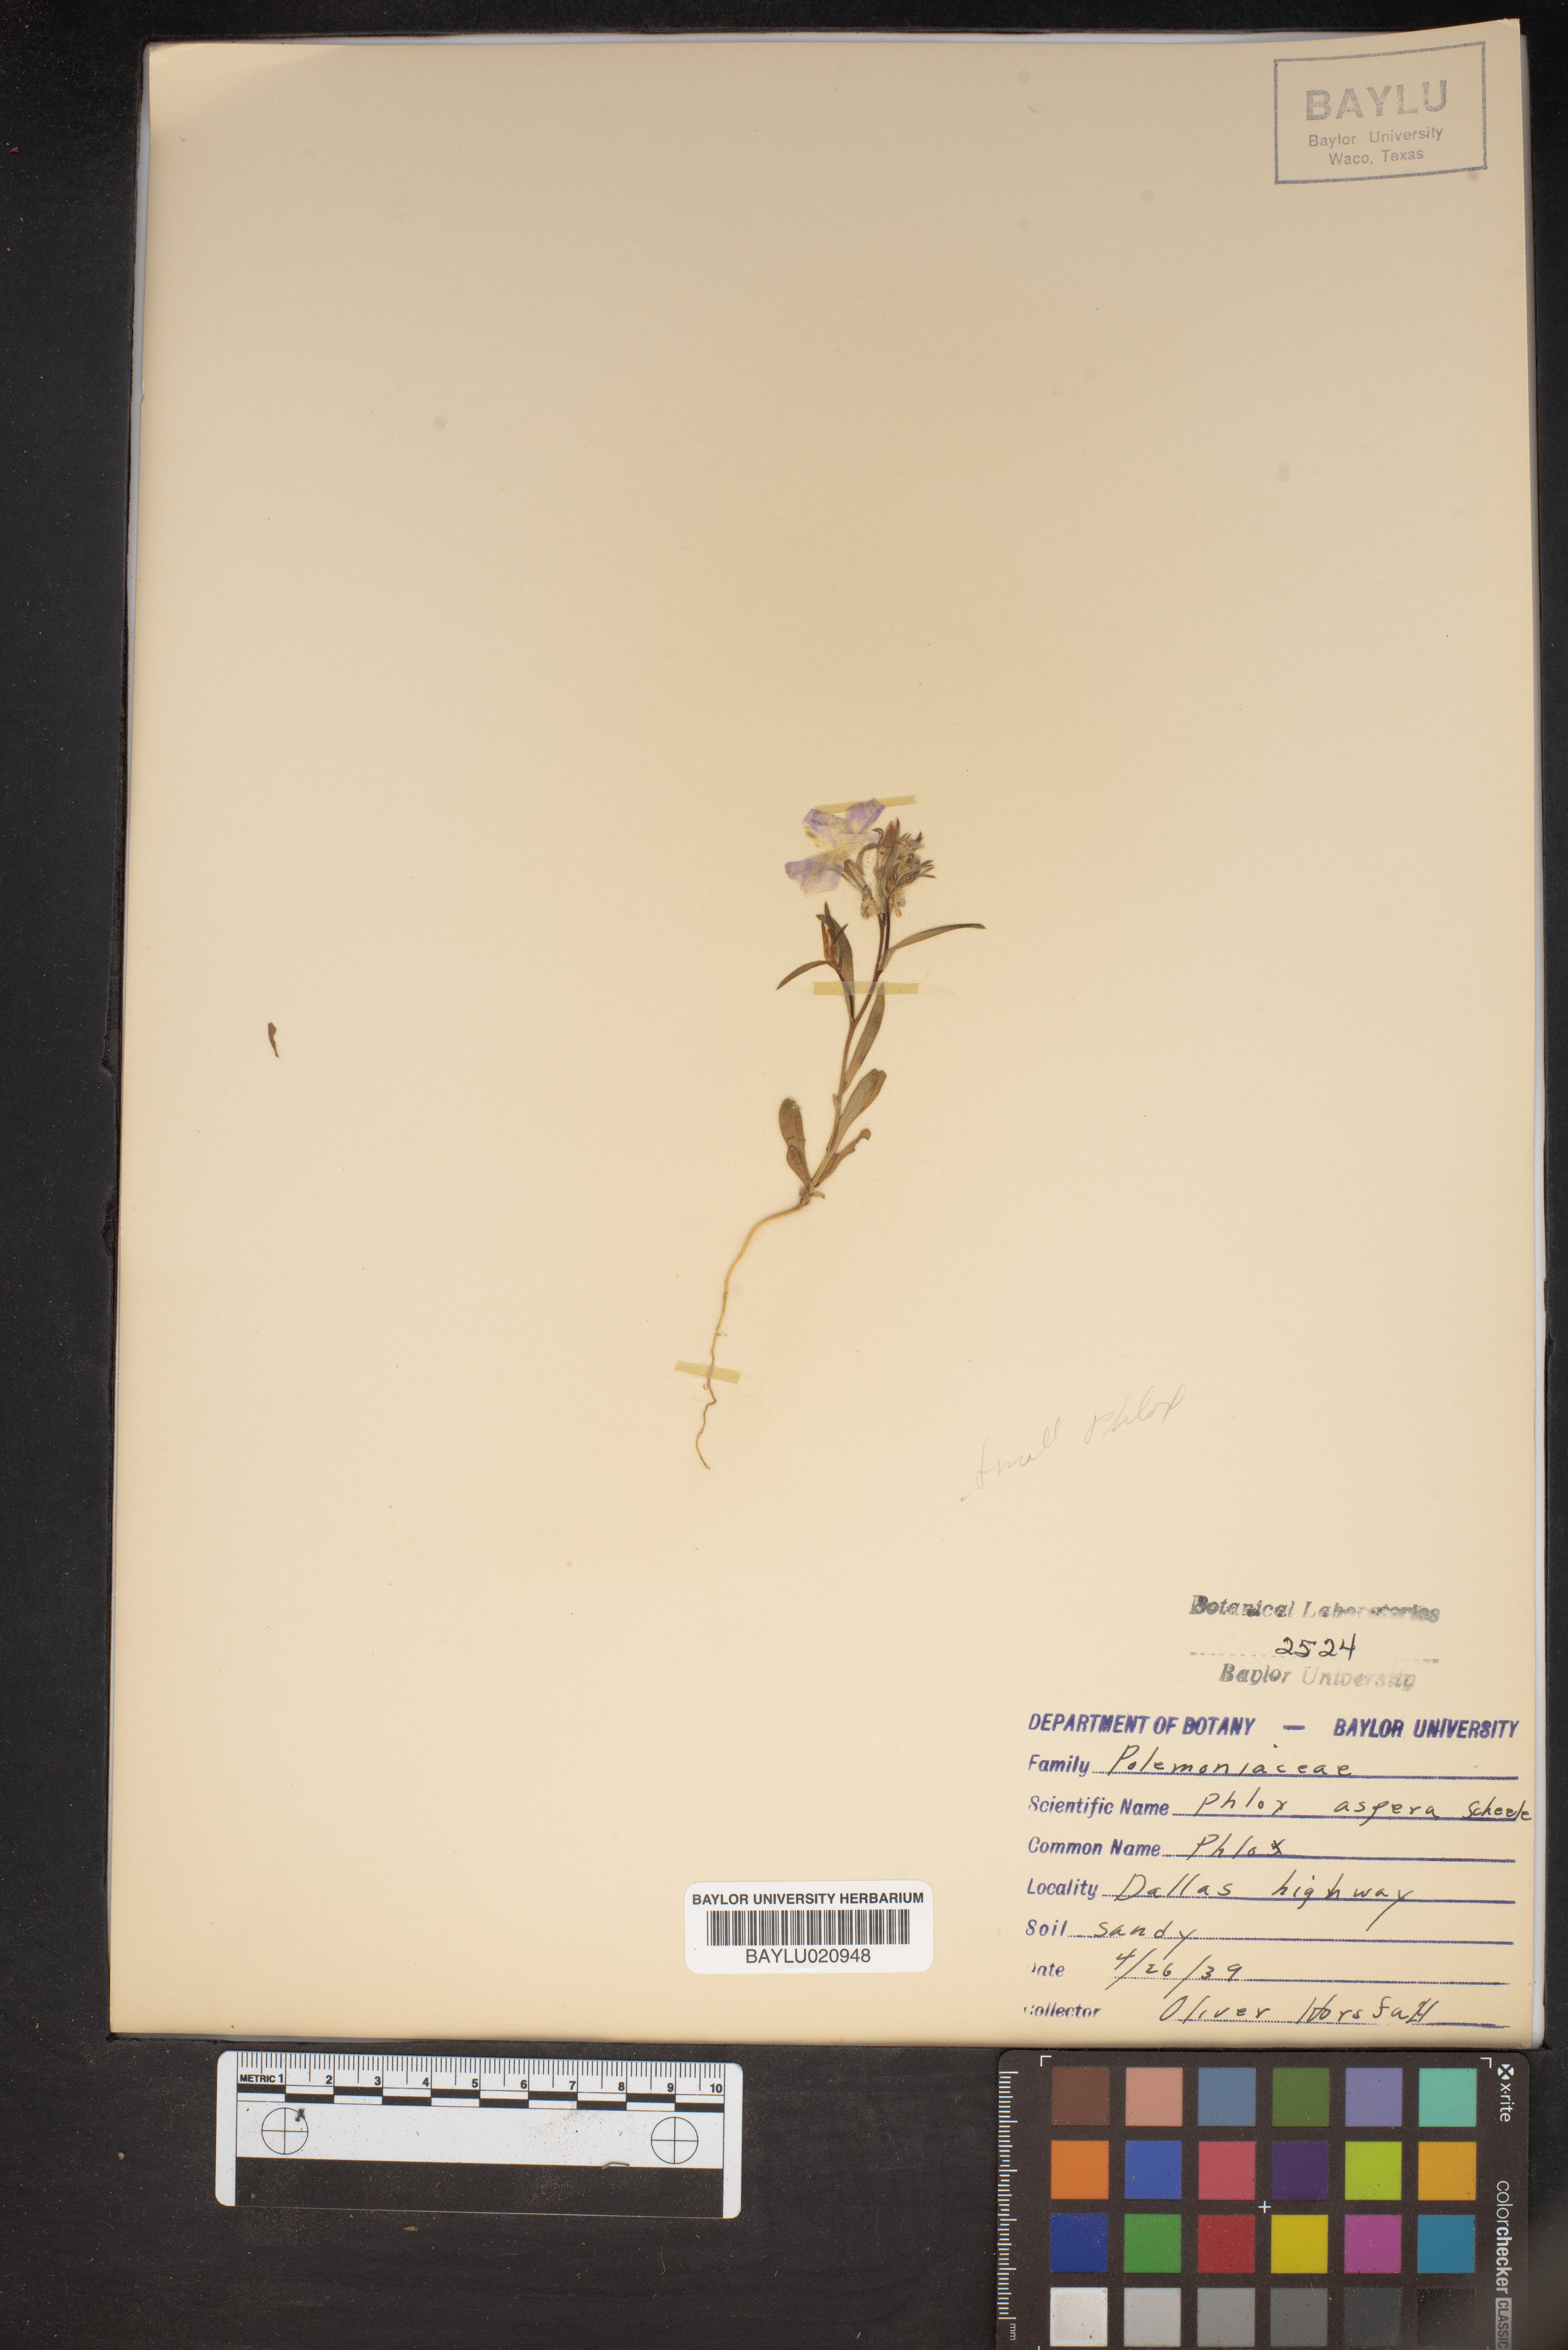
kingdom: Plantae
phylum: Tracheophyta
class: Magnoliopsida
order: Ericales
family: Polemoniaceae
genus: Phlox
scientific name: Phlox variabilis
